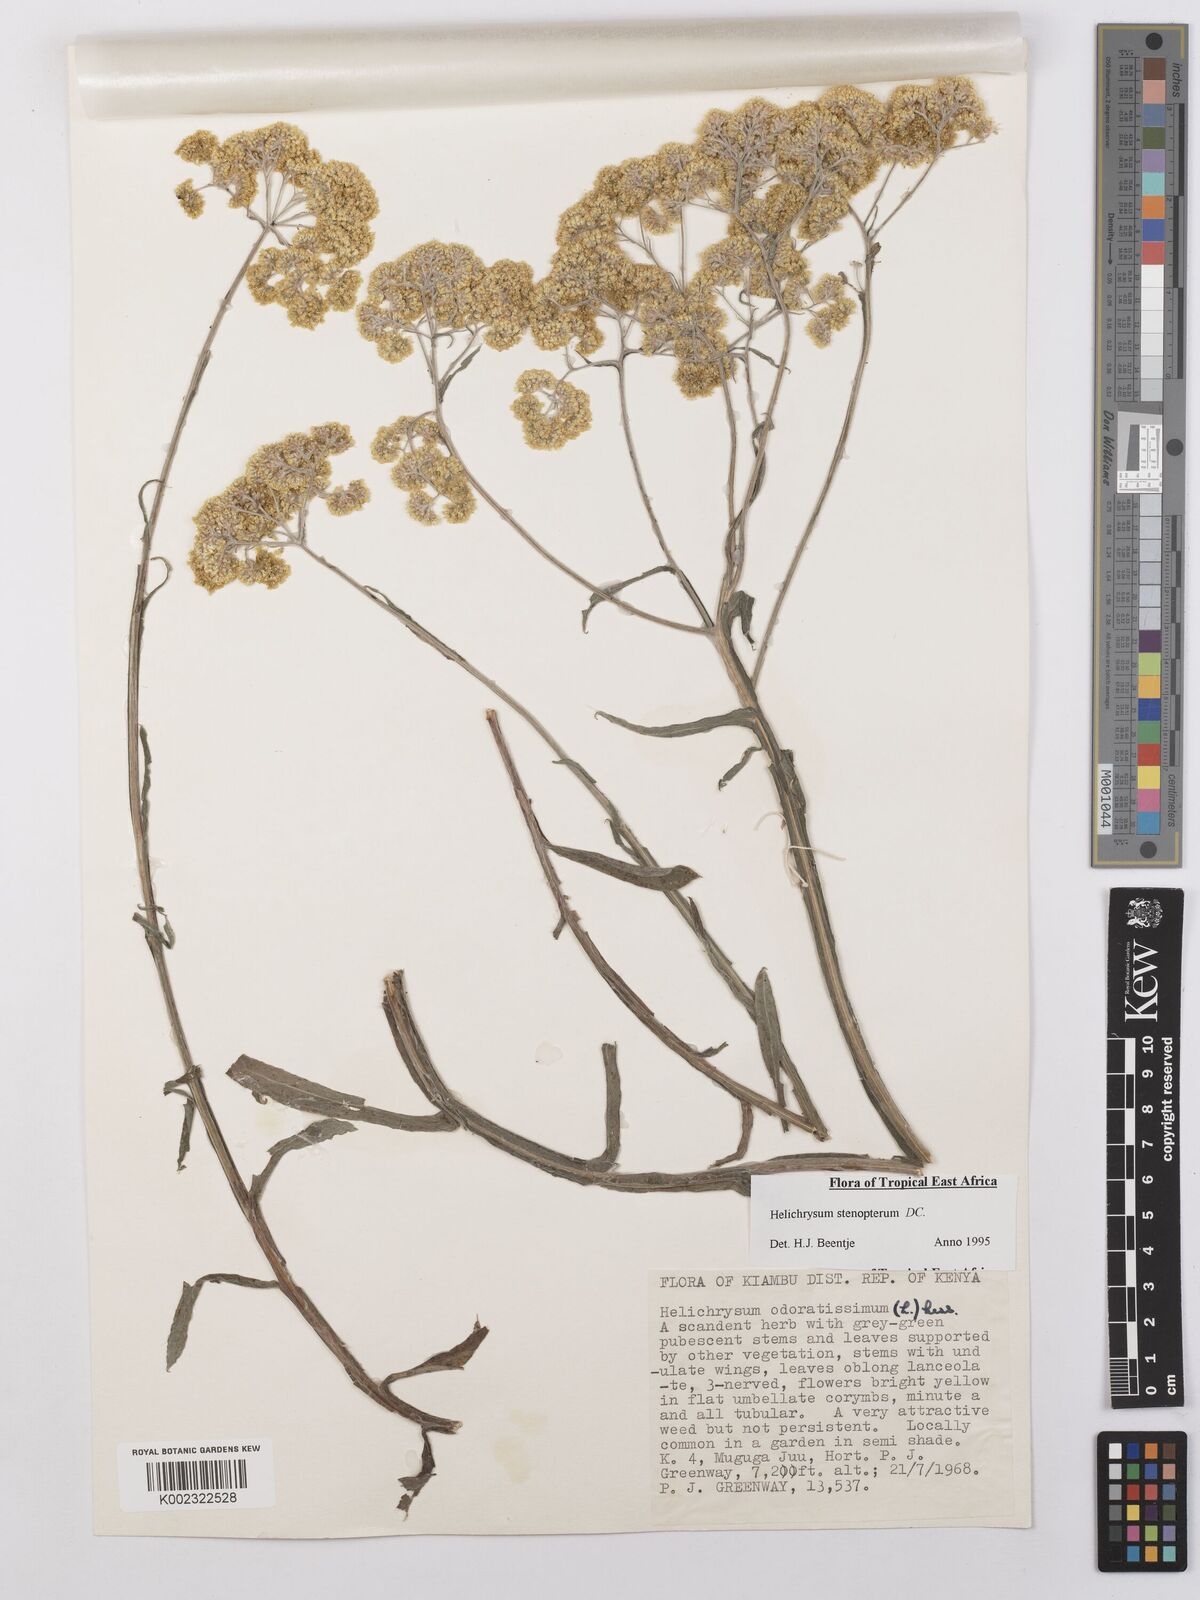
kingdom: Plantae
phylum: Tracheophyta
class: Magnoliopsida
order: Asterales
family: Asteraceae
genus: Helichrysum
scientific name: Helichrysum stenopterum
